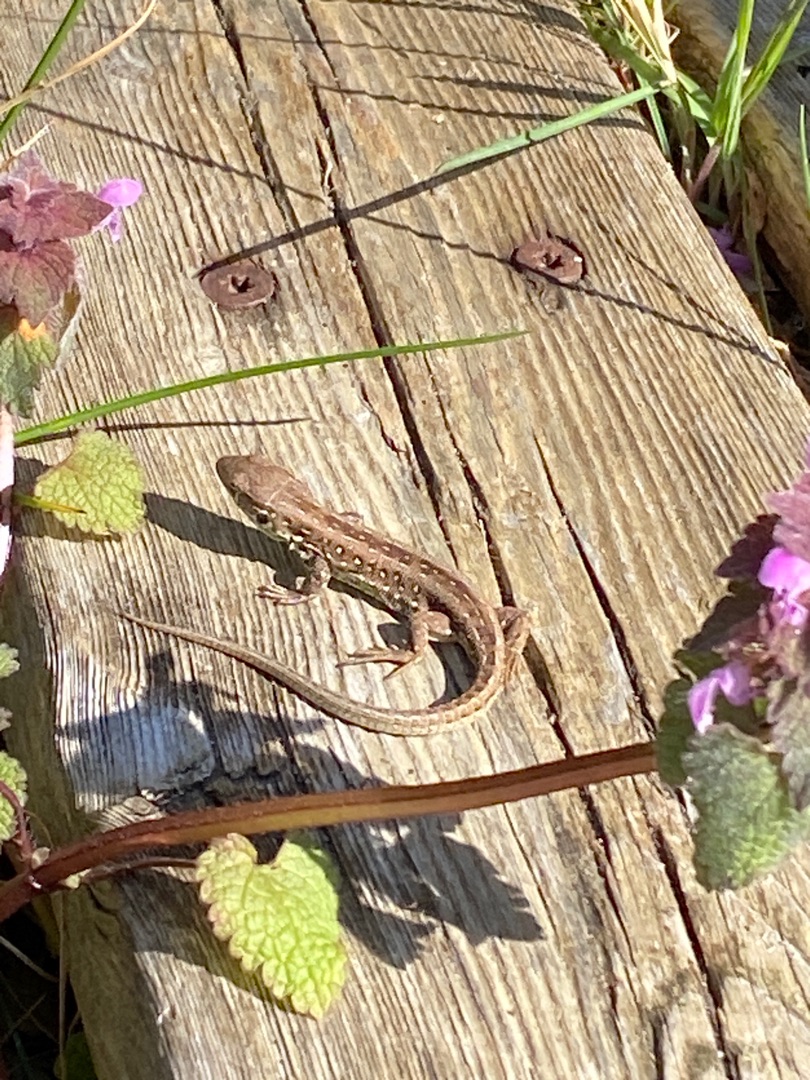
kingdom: Animalia
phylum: Chordata
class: Squamata
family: Lacertidae
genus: Lacerta
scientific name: Lacerta agilis
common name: Markfirben
